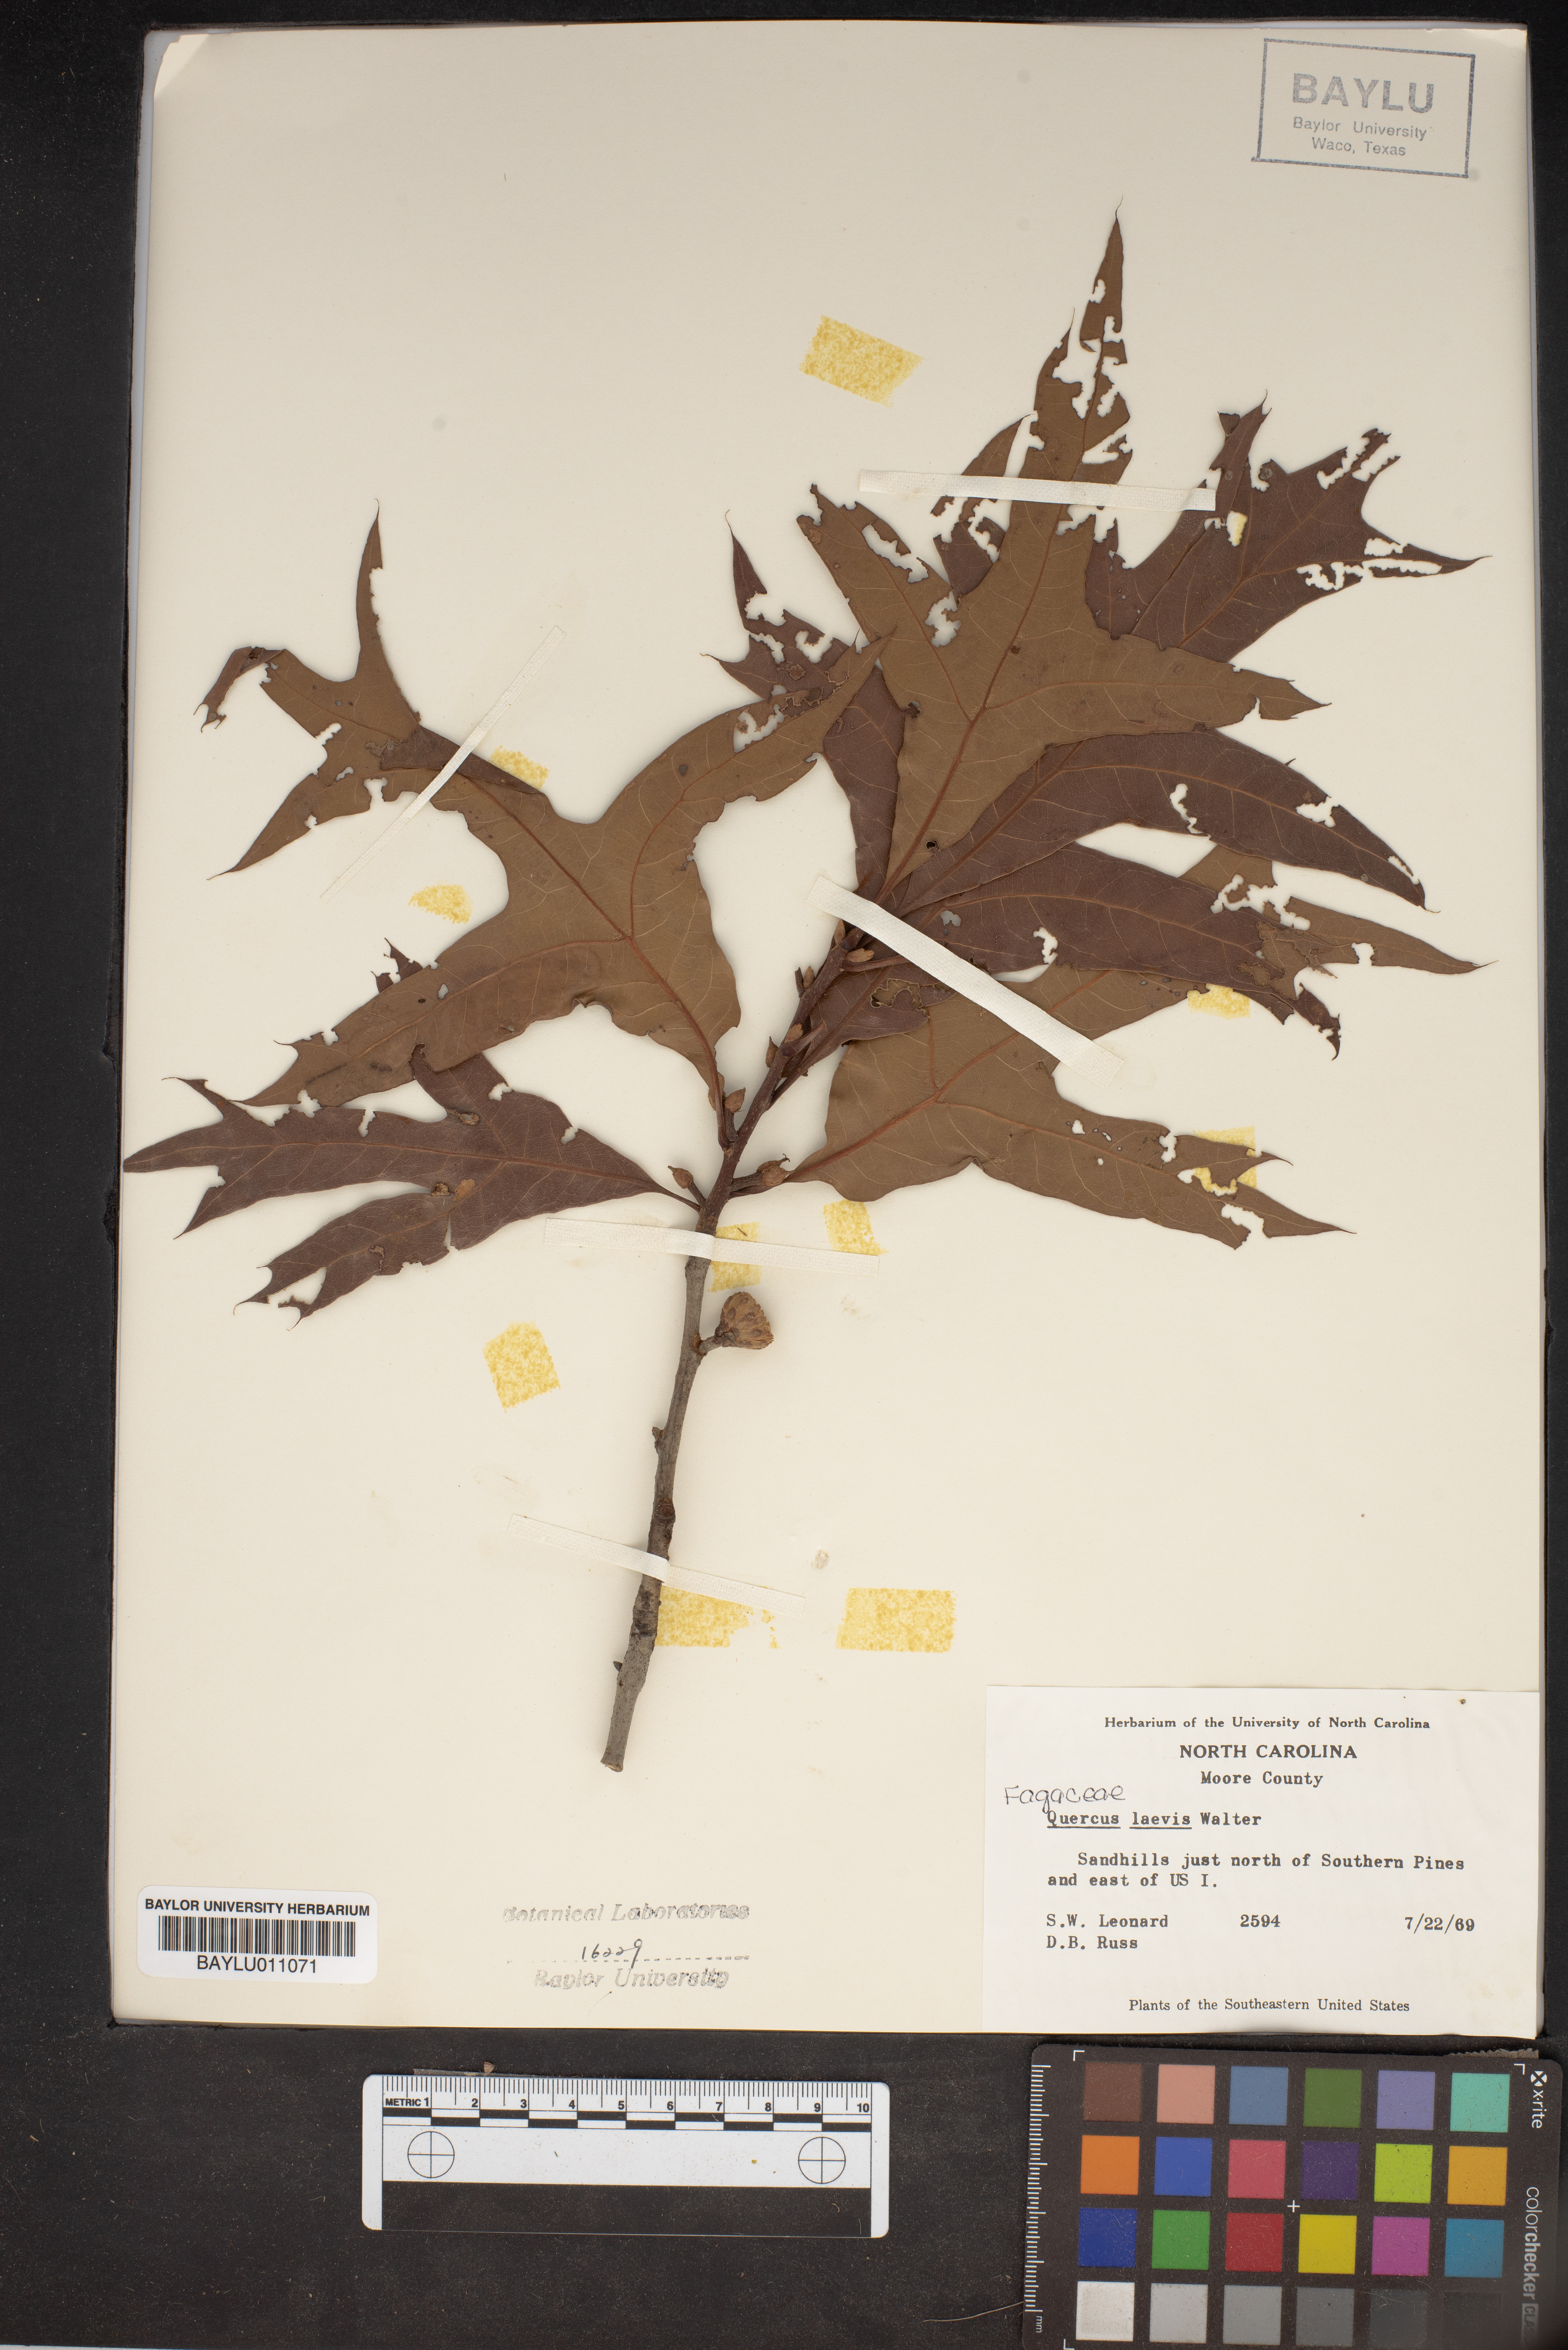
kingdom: Plantae
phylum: Tracheophyta
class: Magnoliopsida
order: Fagales
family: Fagaceae
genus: Quercus
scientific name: Quercus laevis
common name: Turkey oak
